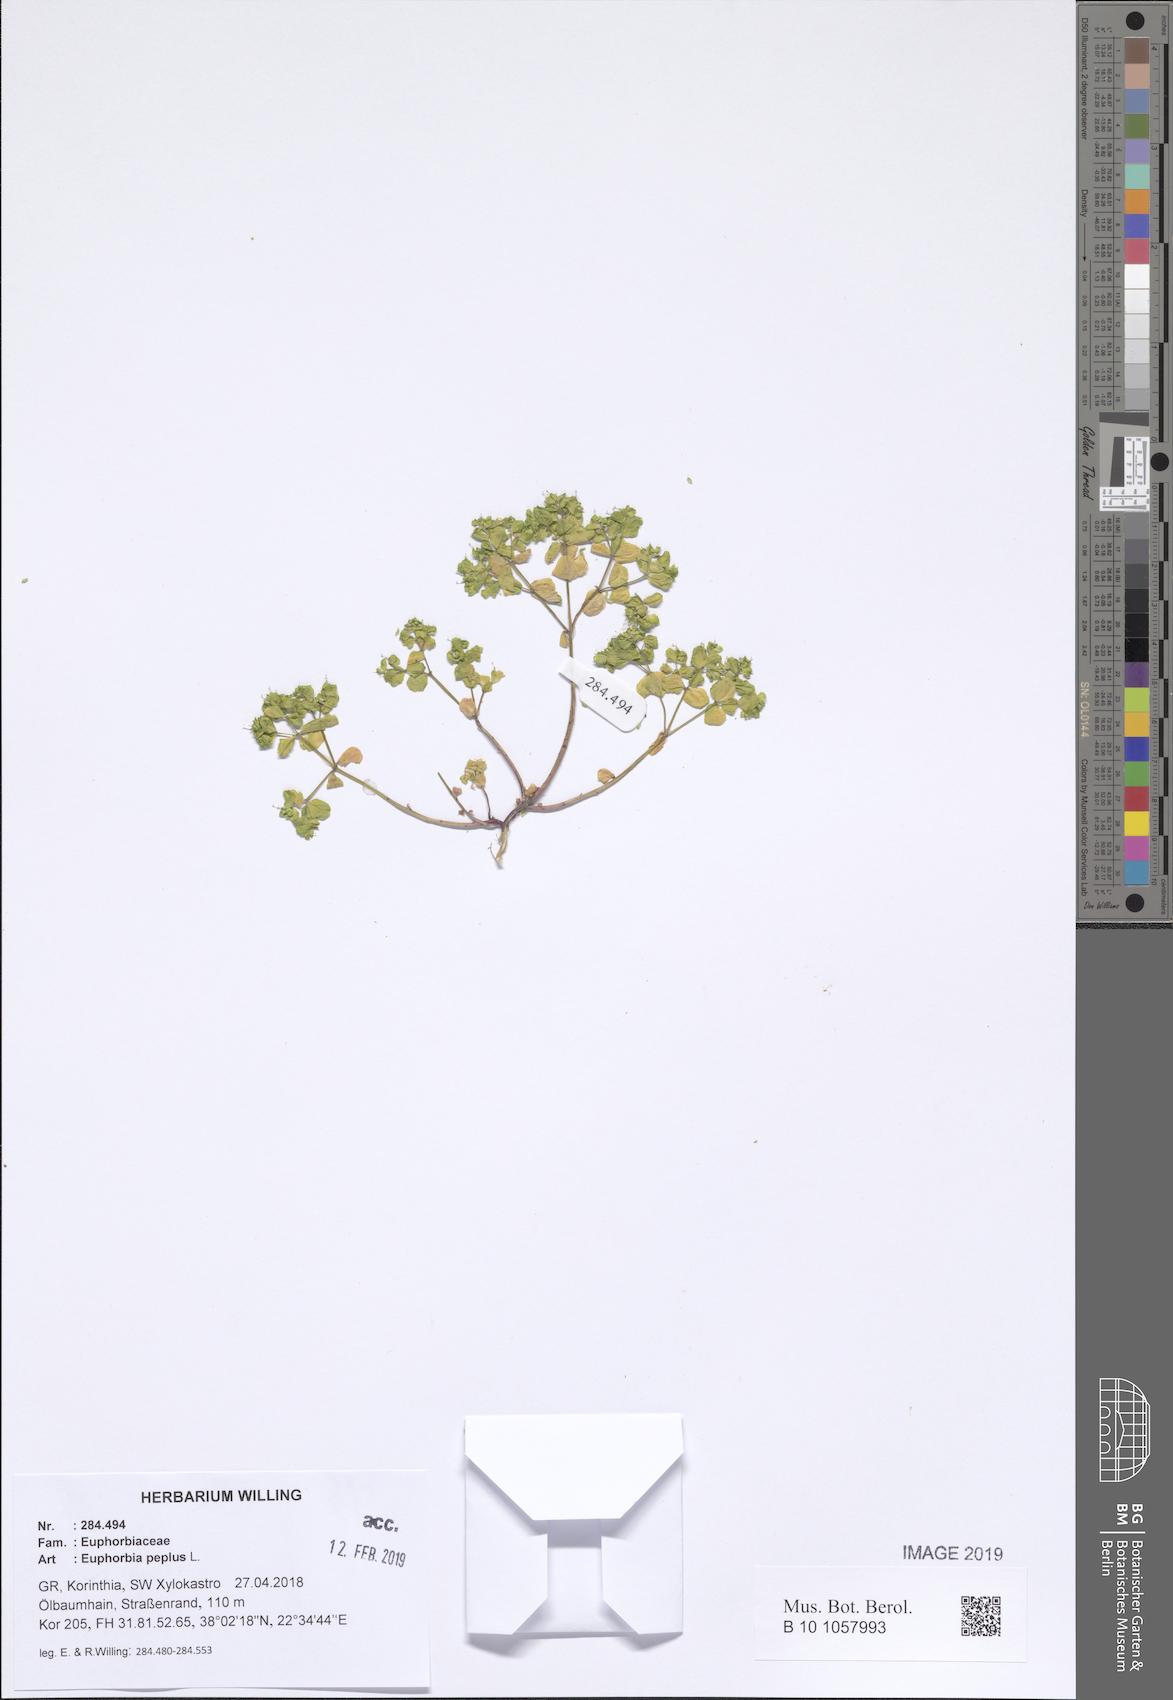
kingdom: Plantae
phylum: Tracheophyta
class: Magnoliopsida
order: Malpighiales
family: Euphorbiaceae
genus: Euphorbia
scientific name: Euphorbia peplus
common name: Petty spurge
